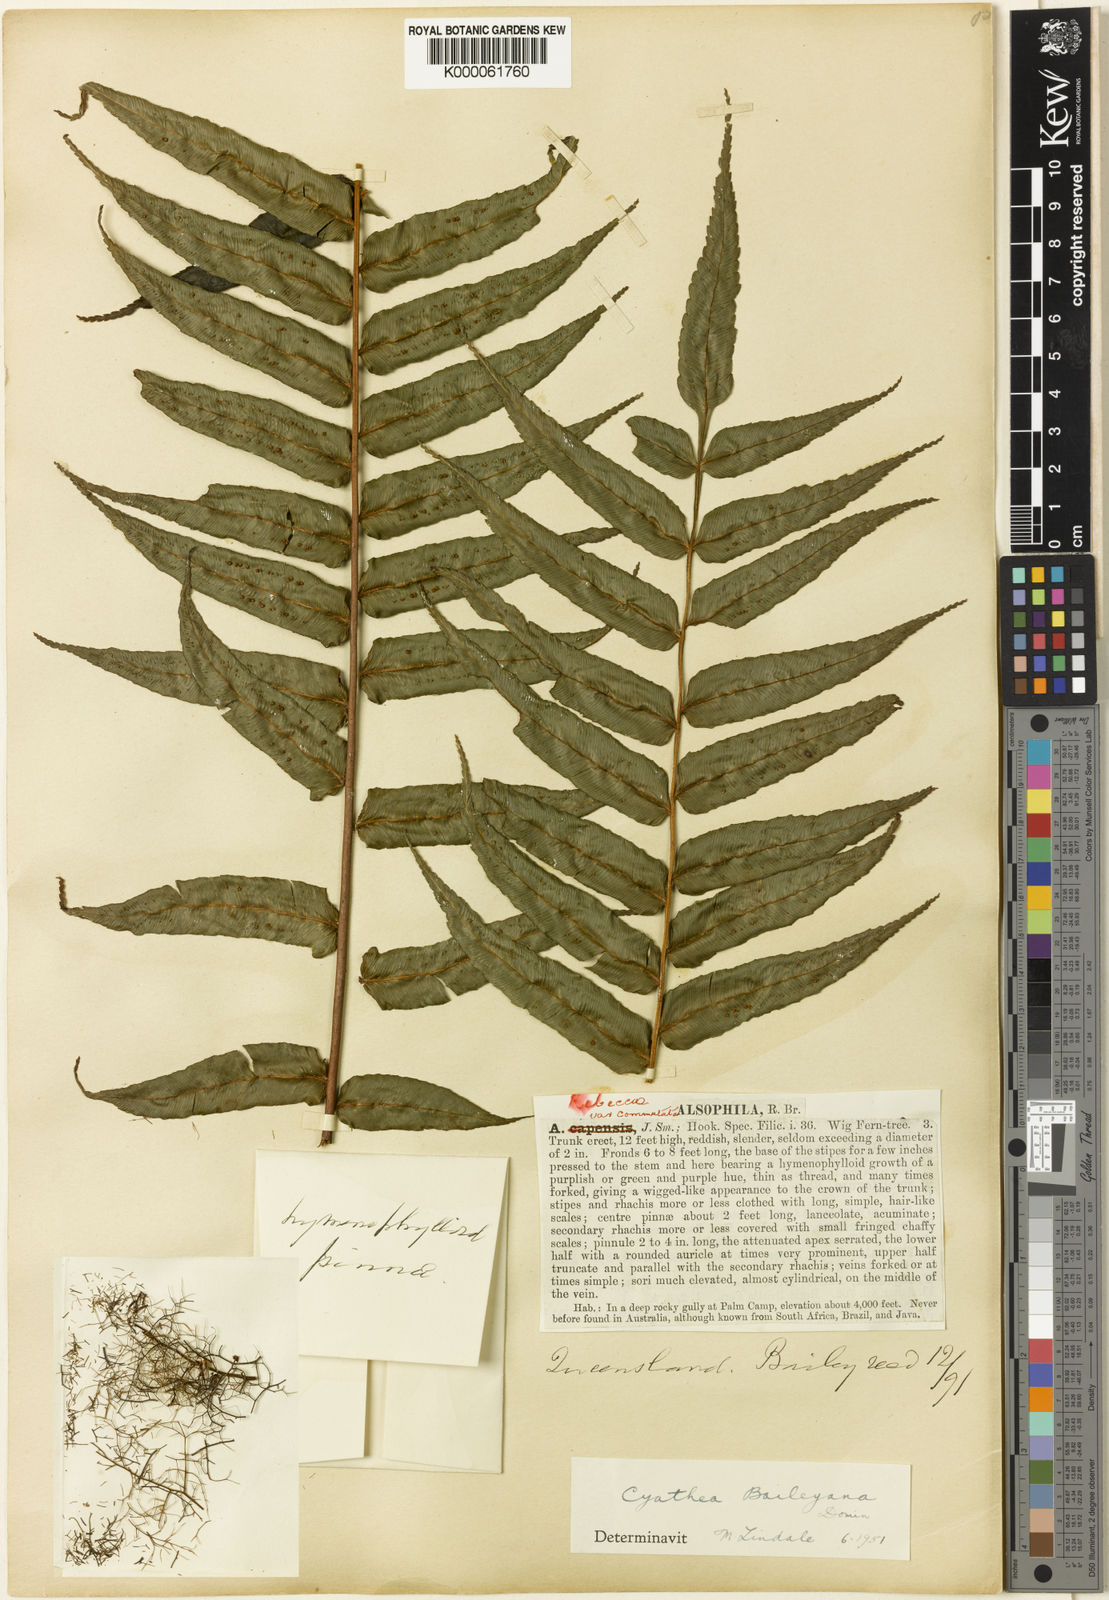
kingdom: Plantae
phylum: Tracheophyta
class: Polypodiopsida
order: Cyatheales
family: Cyatheaceae
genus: Gymnosphaera
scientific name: Gymnosphaera rebeccae
